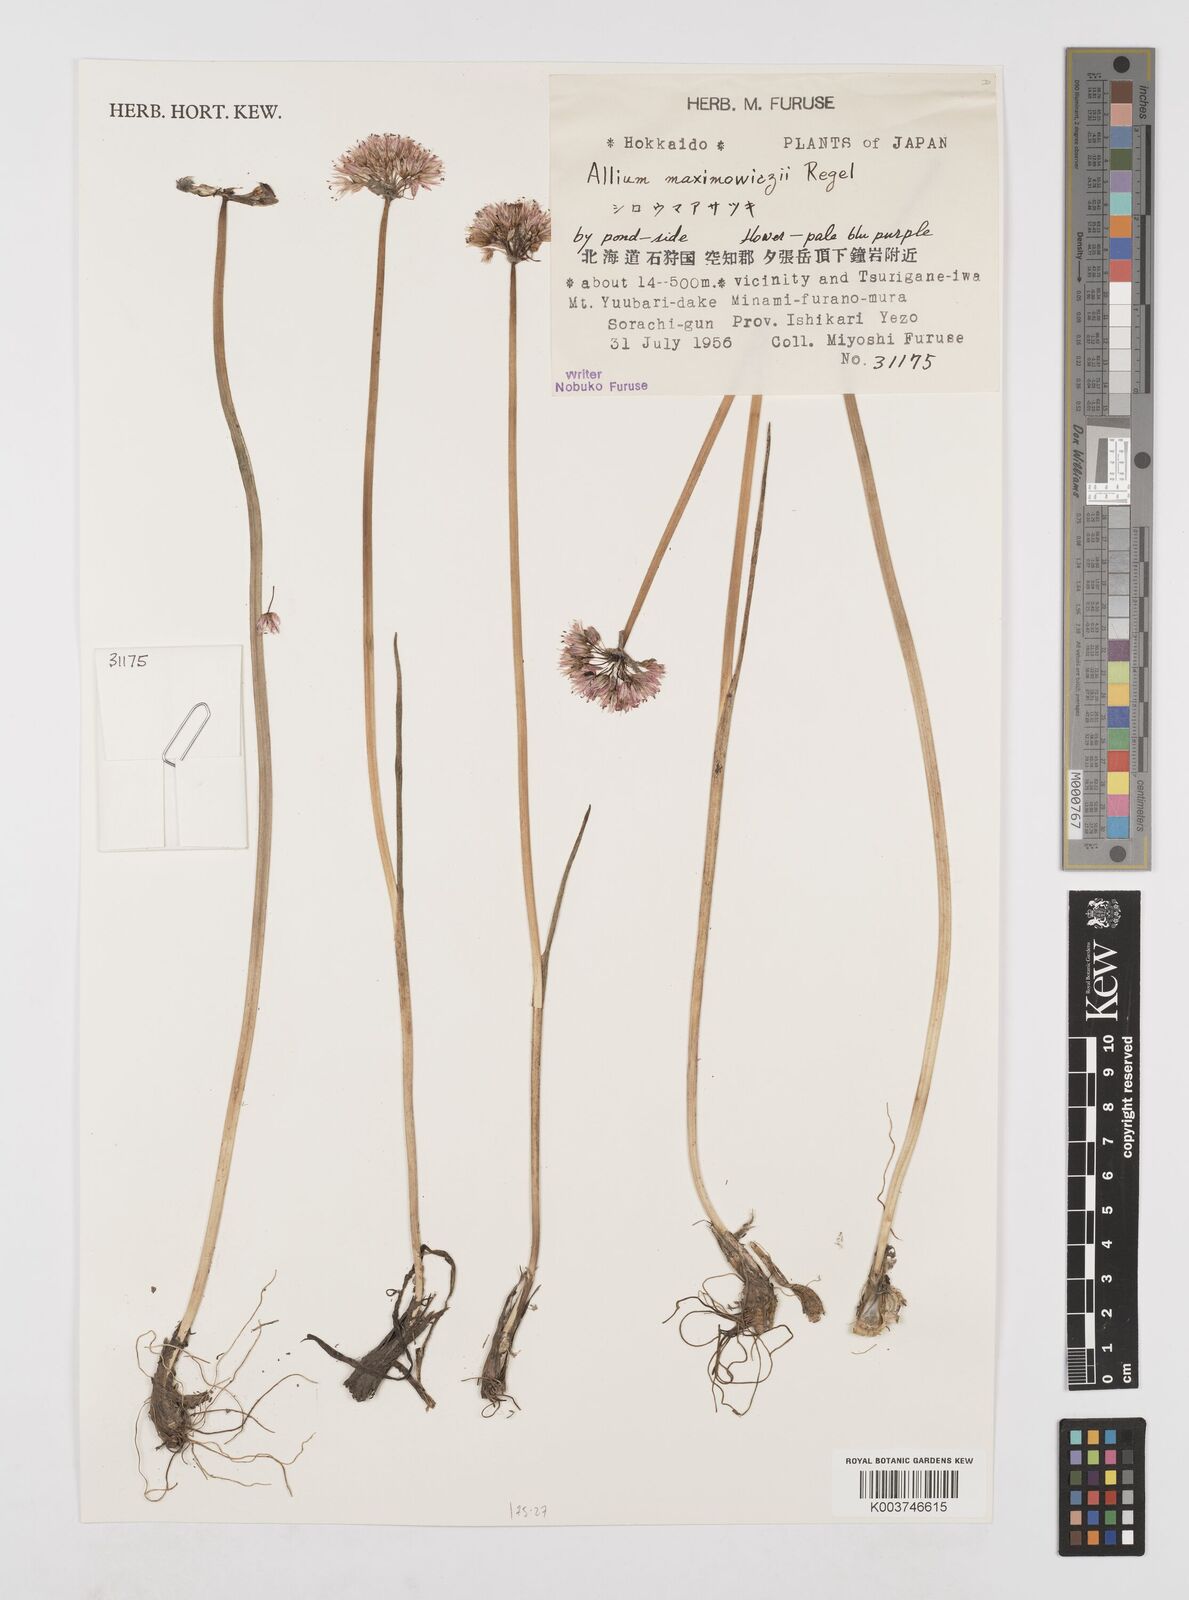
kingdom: Plantae
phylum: Tracheophyta
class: Liliopsida
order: Asparagales
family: Amaryllidaceae
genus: Allium
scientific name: Allium maximowiczii
